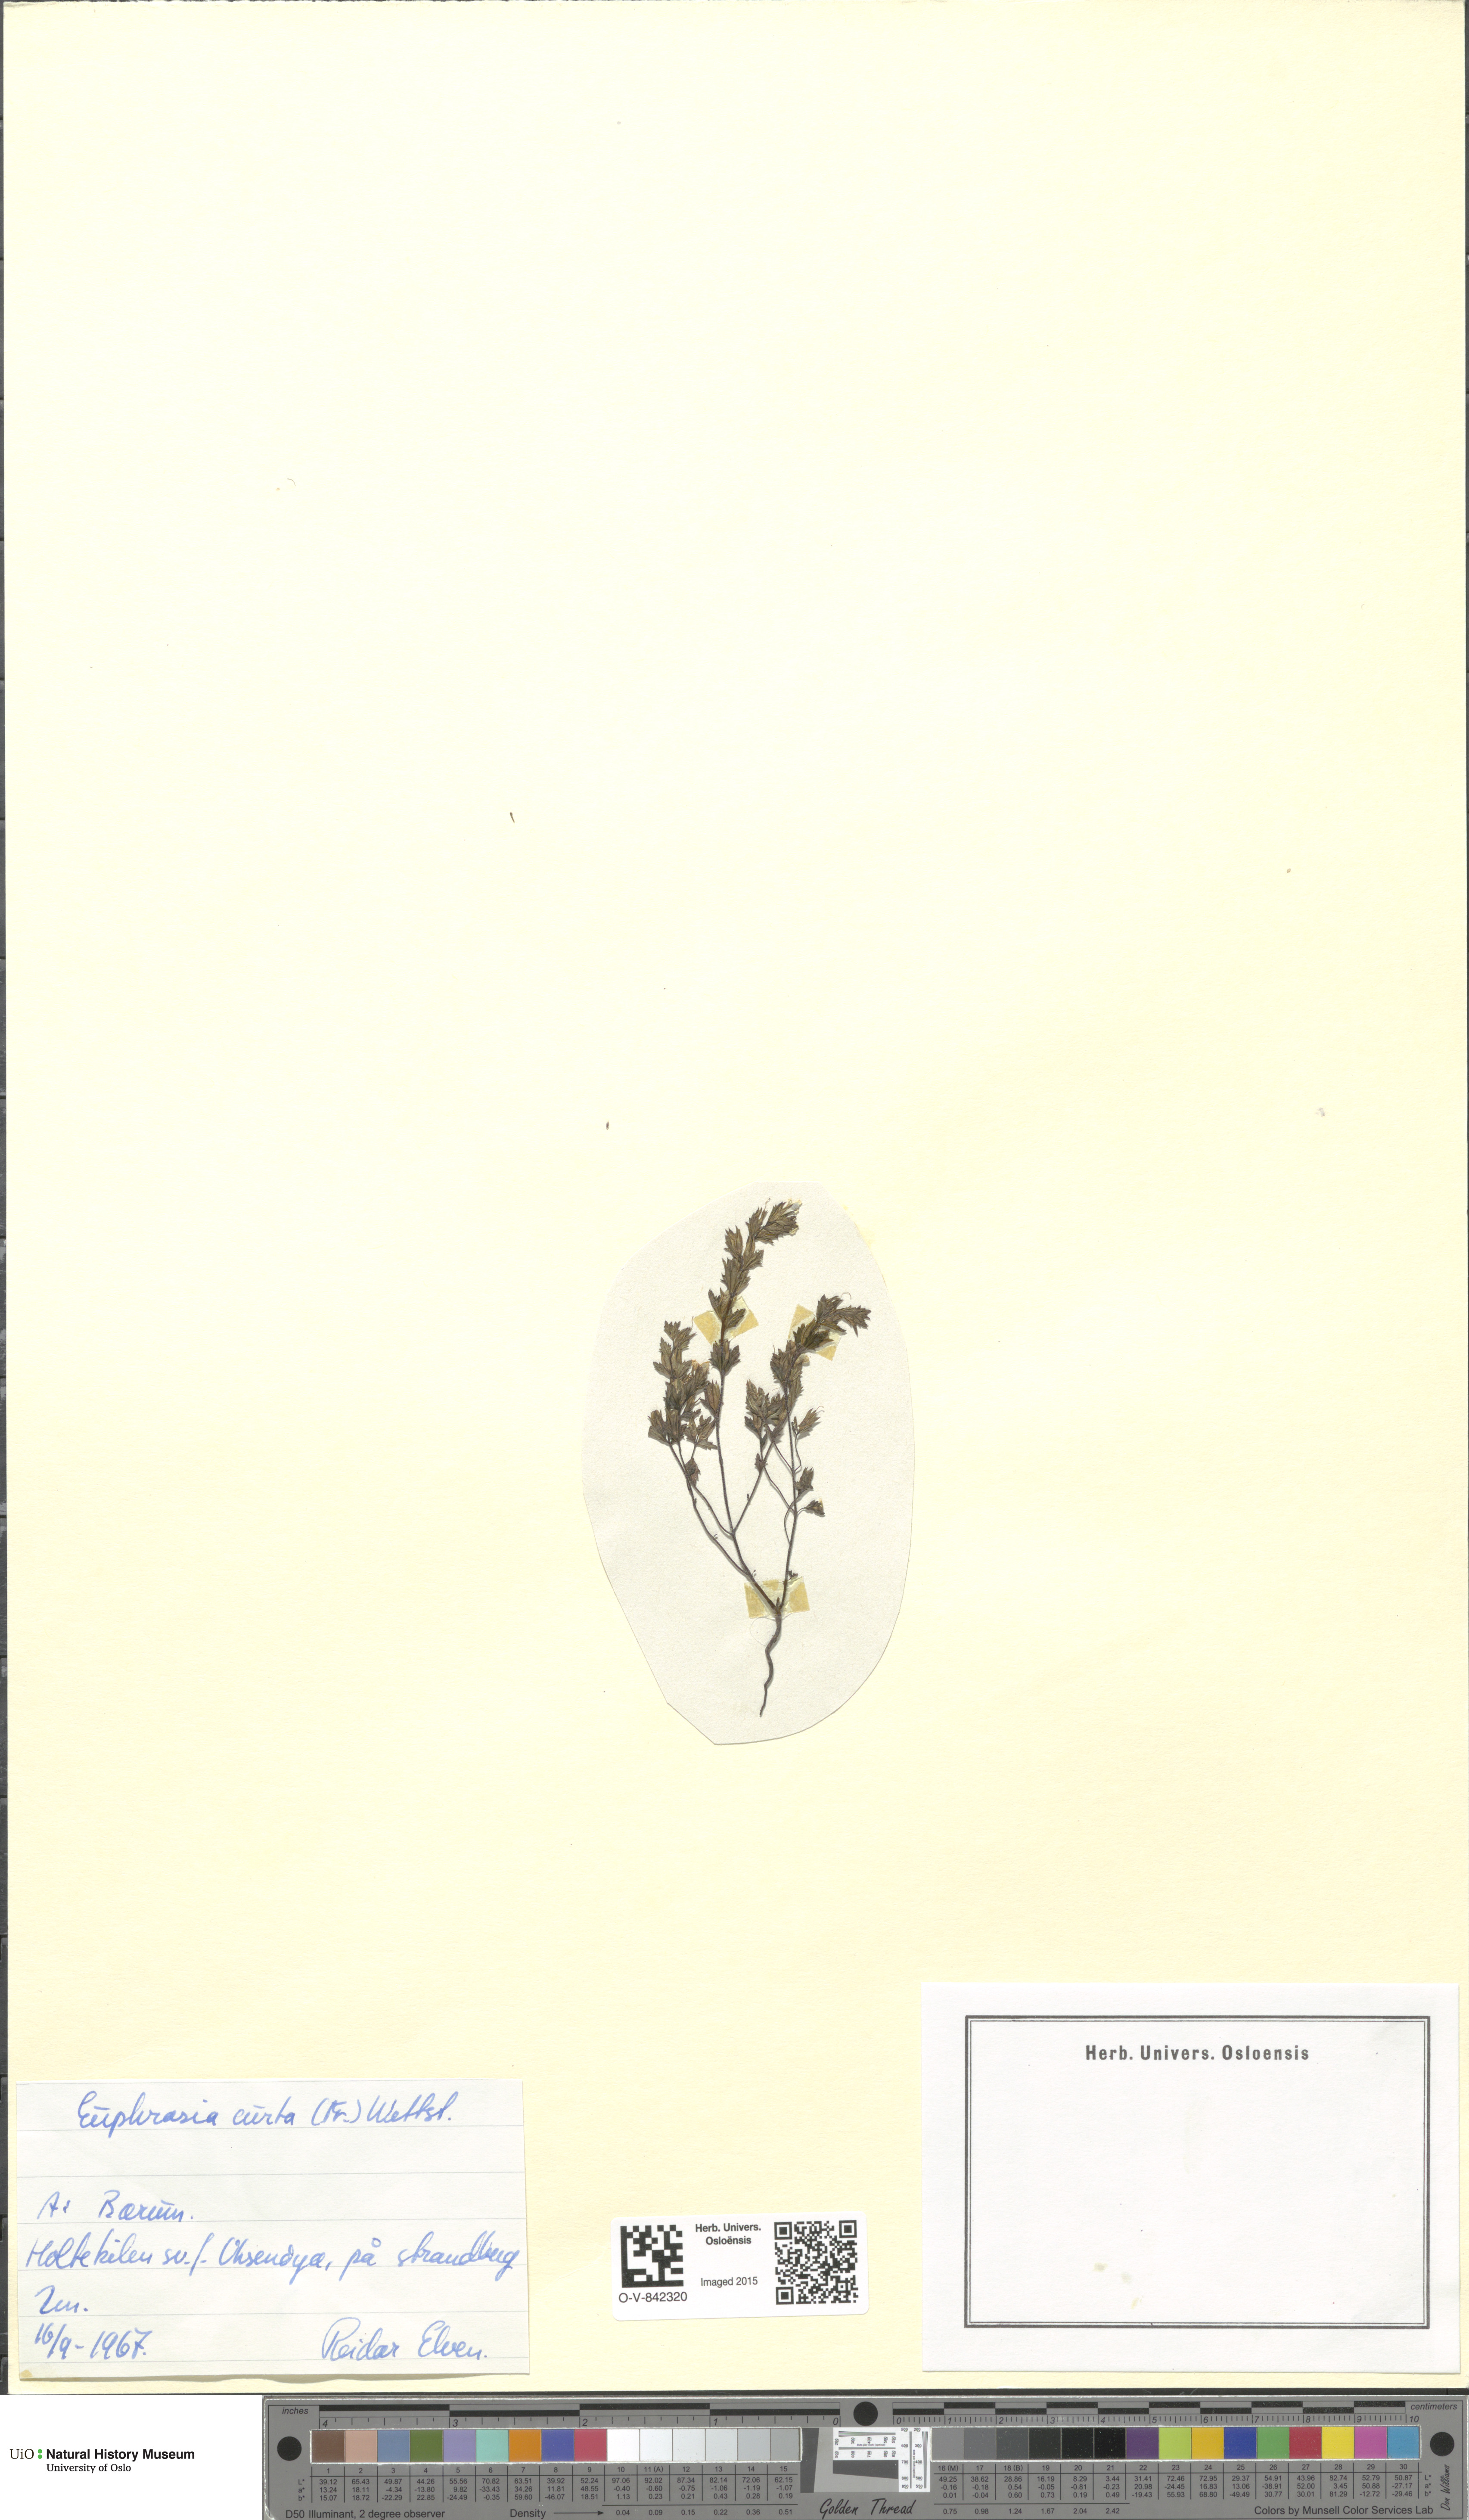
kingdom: Plantae
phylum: Tracheophyta
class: Magnoliopsida
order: Lamiales
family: Orobanchaceae
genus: Euphrasia
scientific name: Euphrasia micrantha
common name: Northern eyebright
